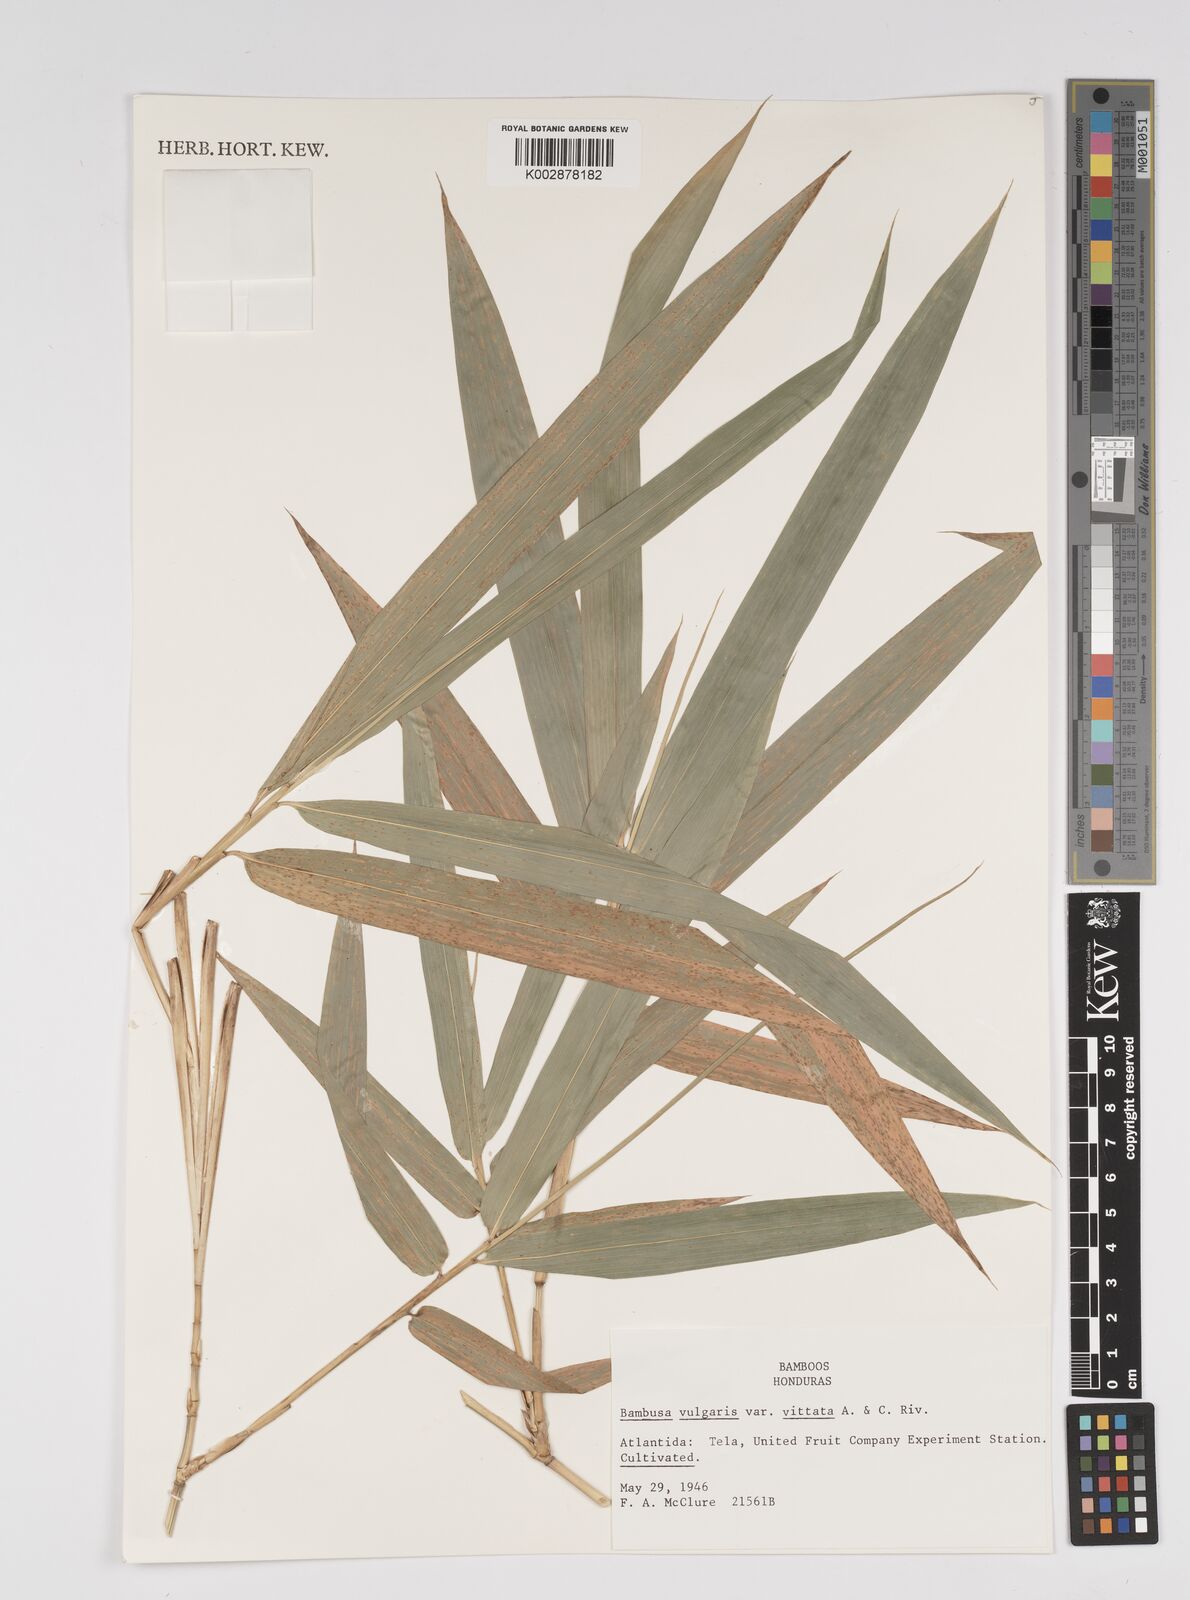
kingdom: Plantae
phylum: Tracheophyta
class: Liliopsida
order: Poales
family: Poaceae
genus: Guadua
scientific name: Guadua amplexifolia
